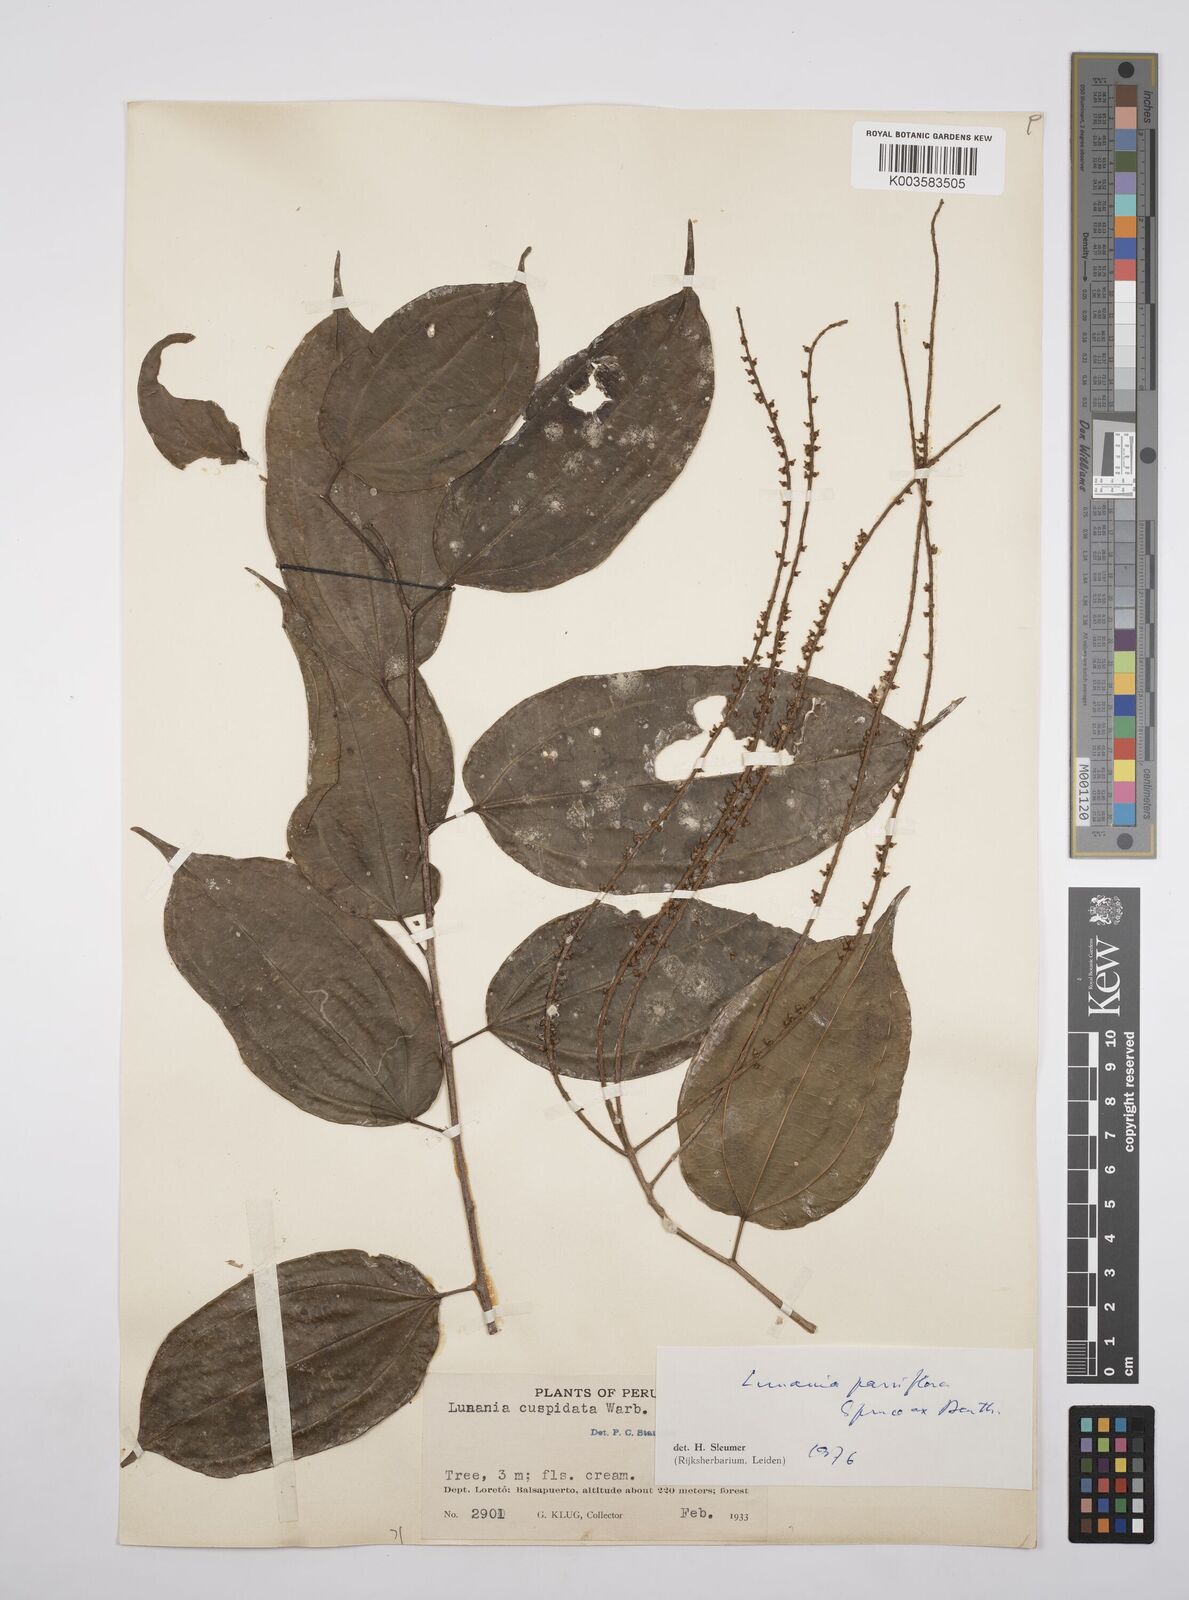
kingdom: Plantae
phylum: Tracheophyta
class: Magnoliopsida
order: Malpighiales
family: Salicaceae
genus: Lunania
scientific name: Lunania parviflora
